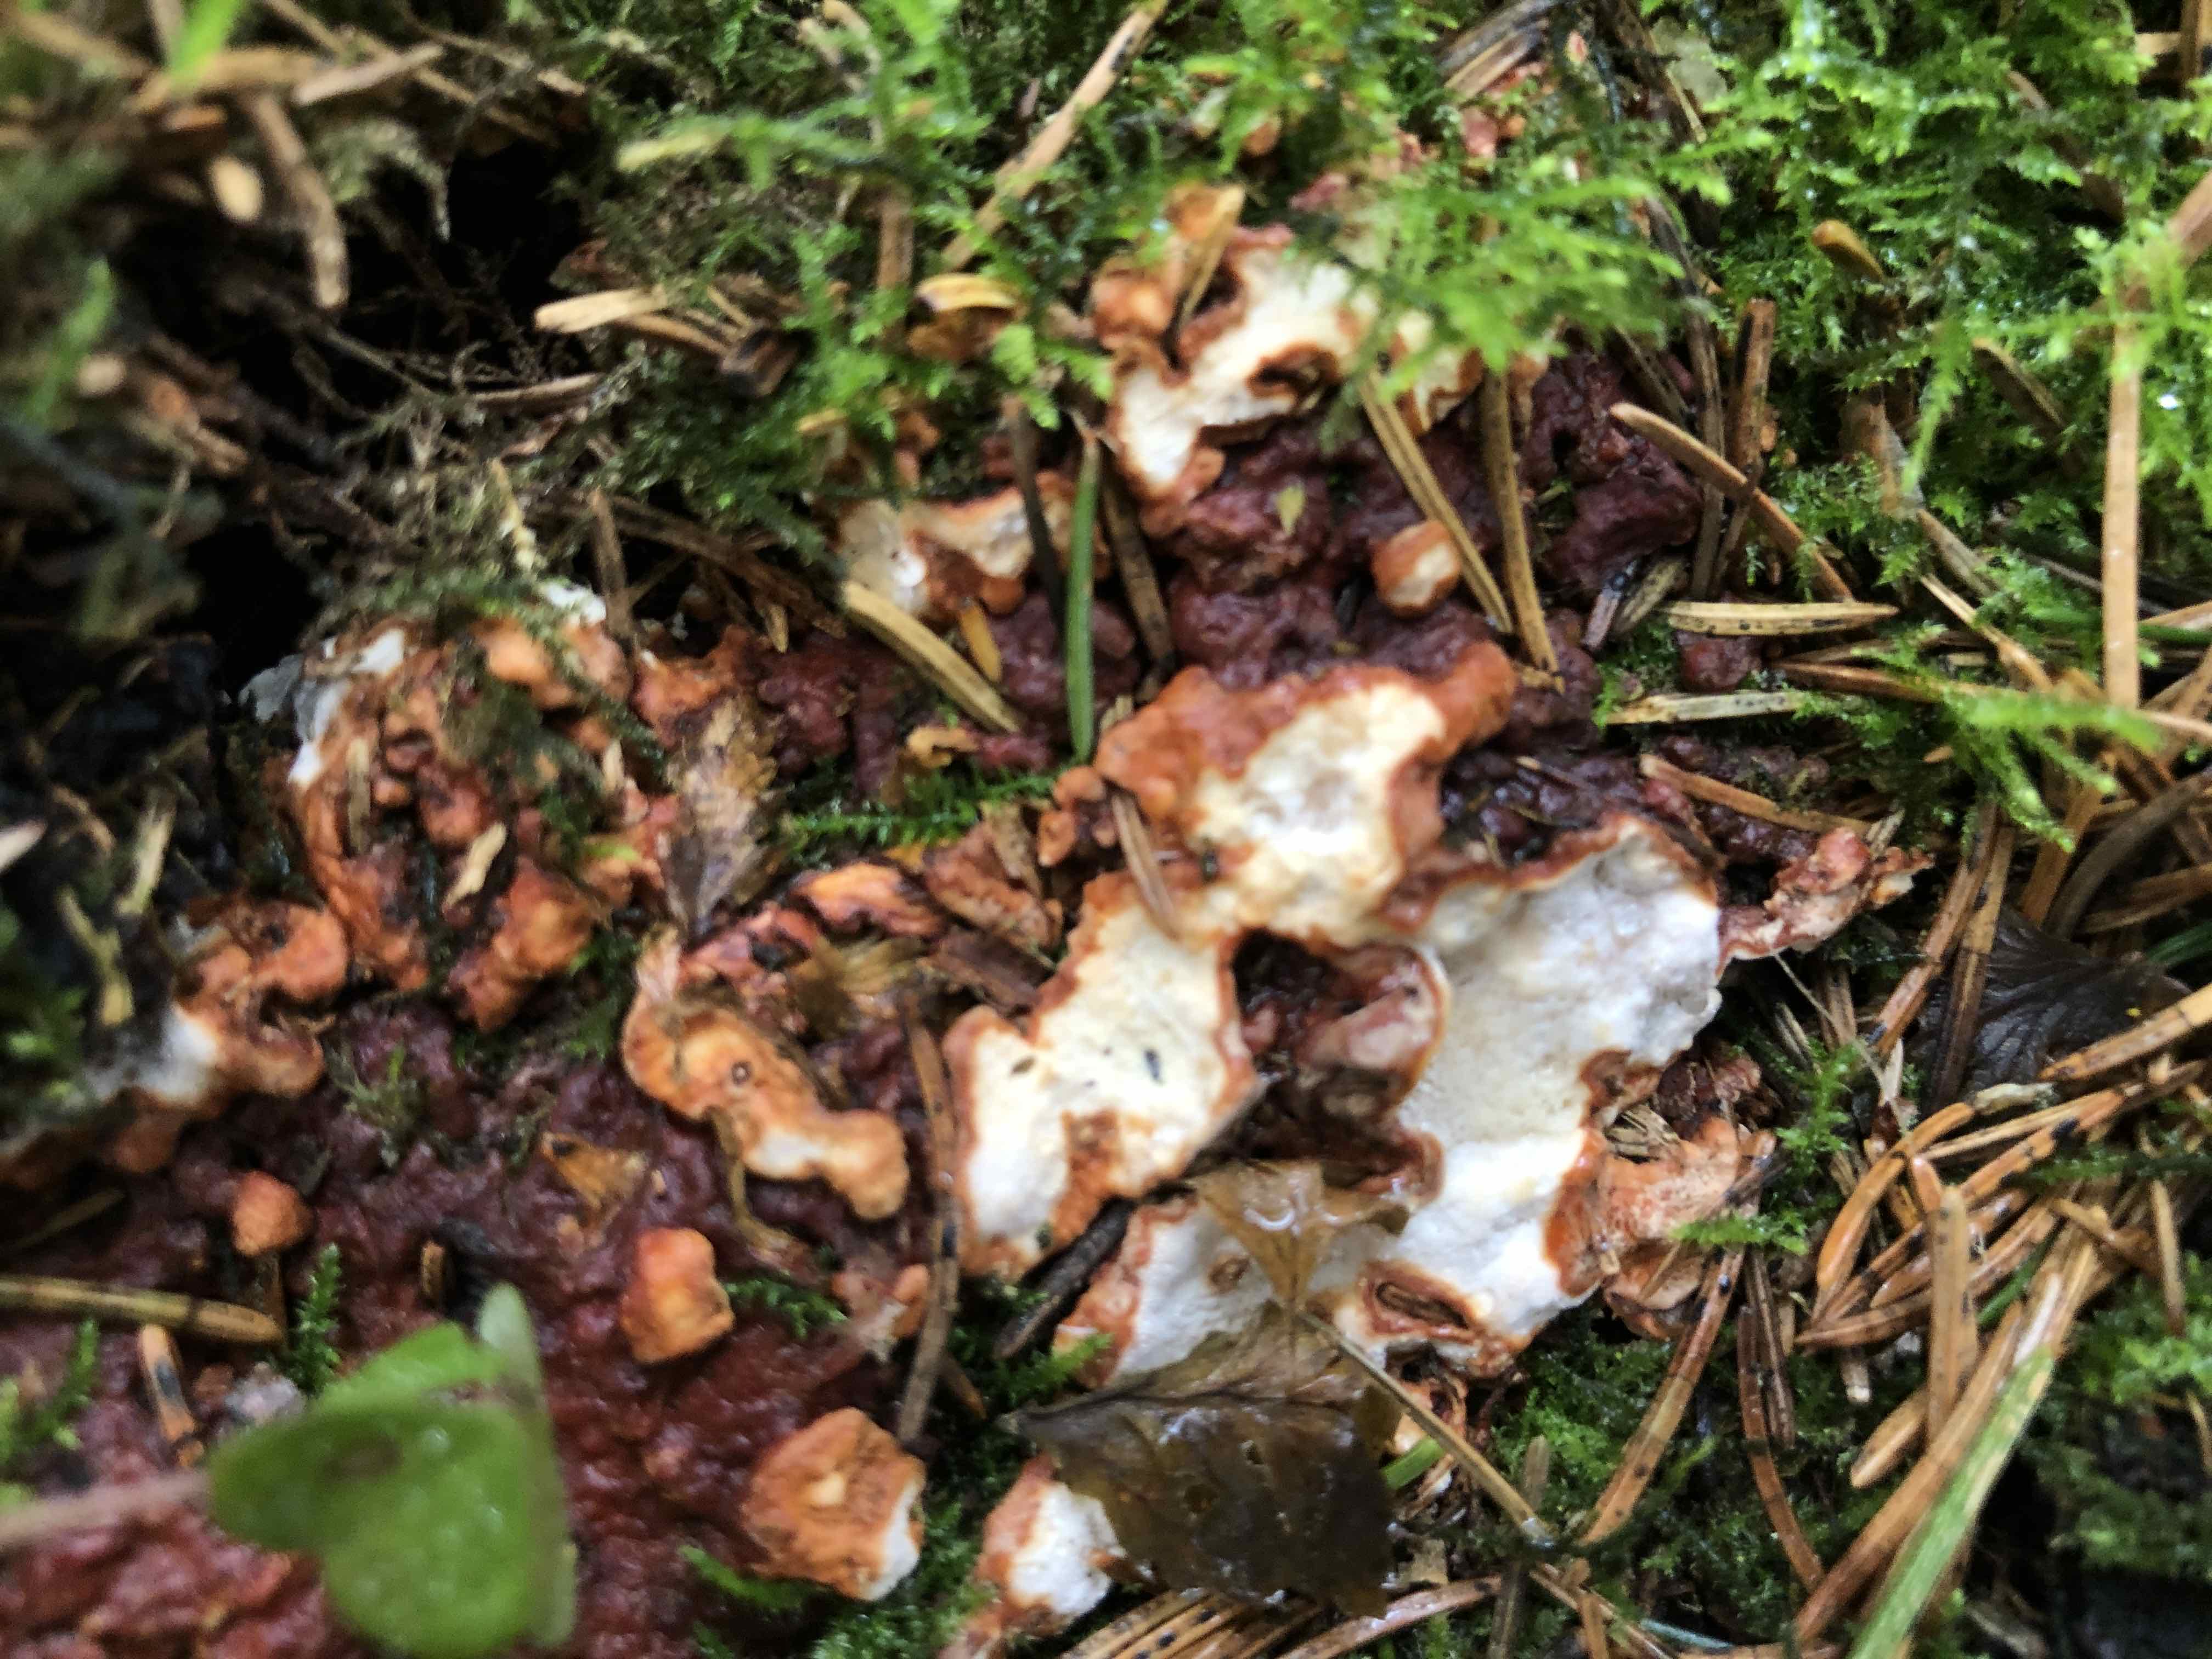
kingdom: Fungi
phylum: Basidiomycota
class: Agaricomycetes
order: Russulales
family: Bondarzewiaceae
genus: Heterobasidion
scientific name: Heterobasidion annosum
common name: almindelig rodfordærver
